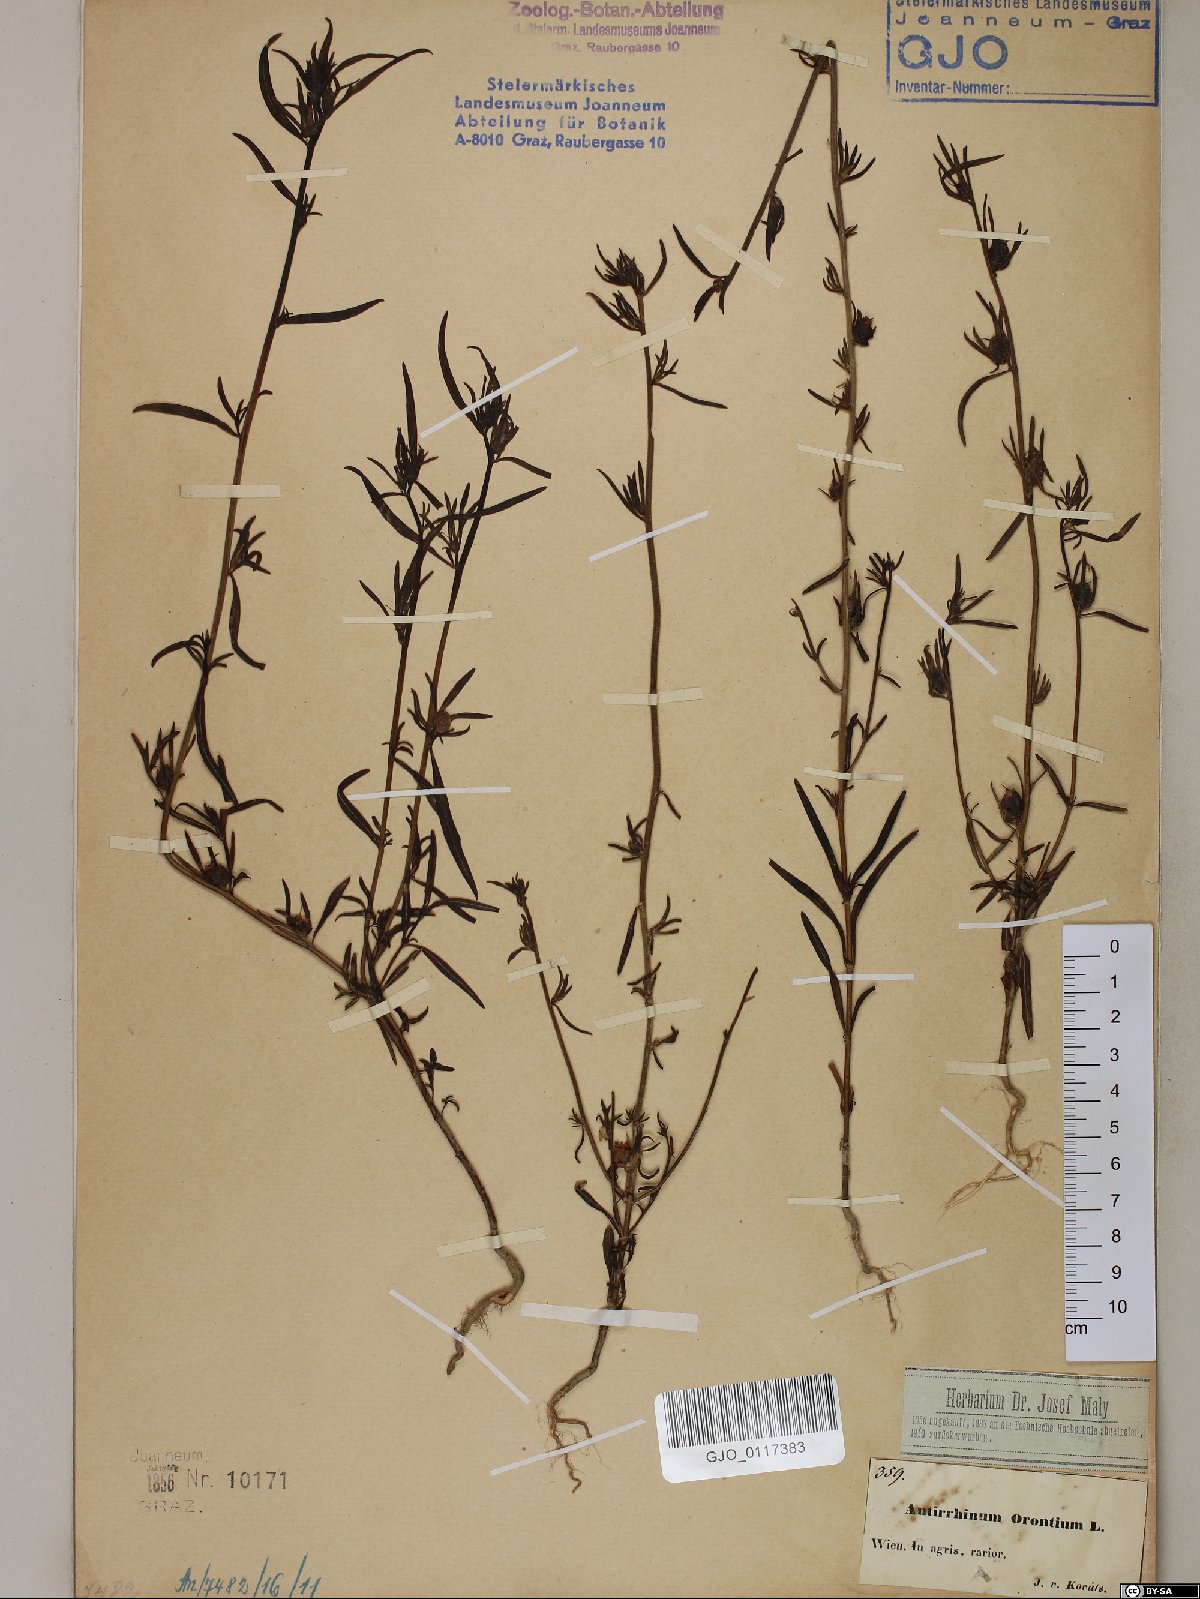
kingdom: Plantae
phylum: Tracheophyta
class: Magnoliopsida
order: Lamiales
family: Plantaginaceae
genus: Misopates
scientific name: Misopates orontium
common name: Weasel's-snout
